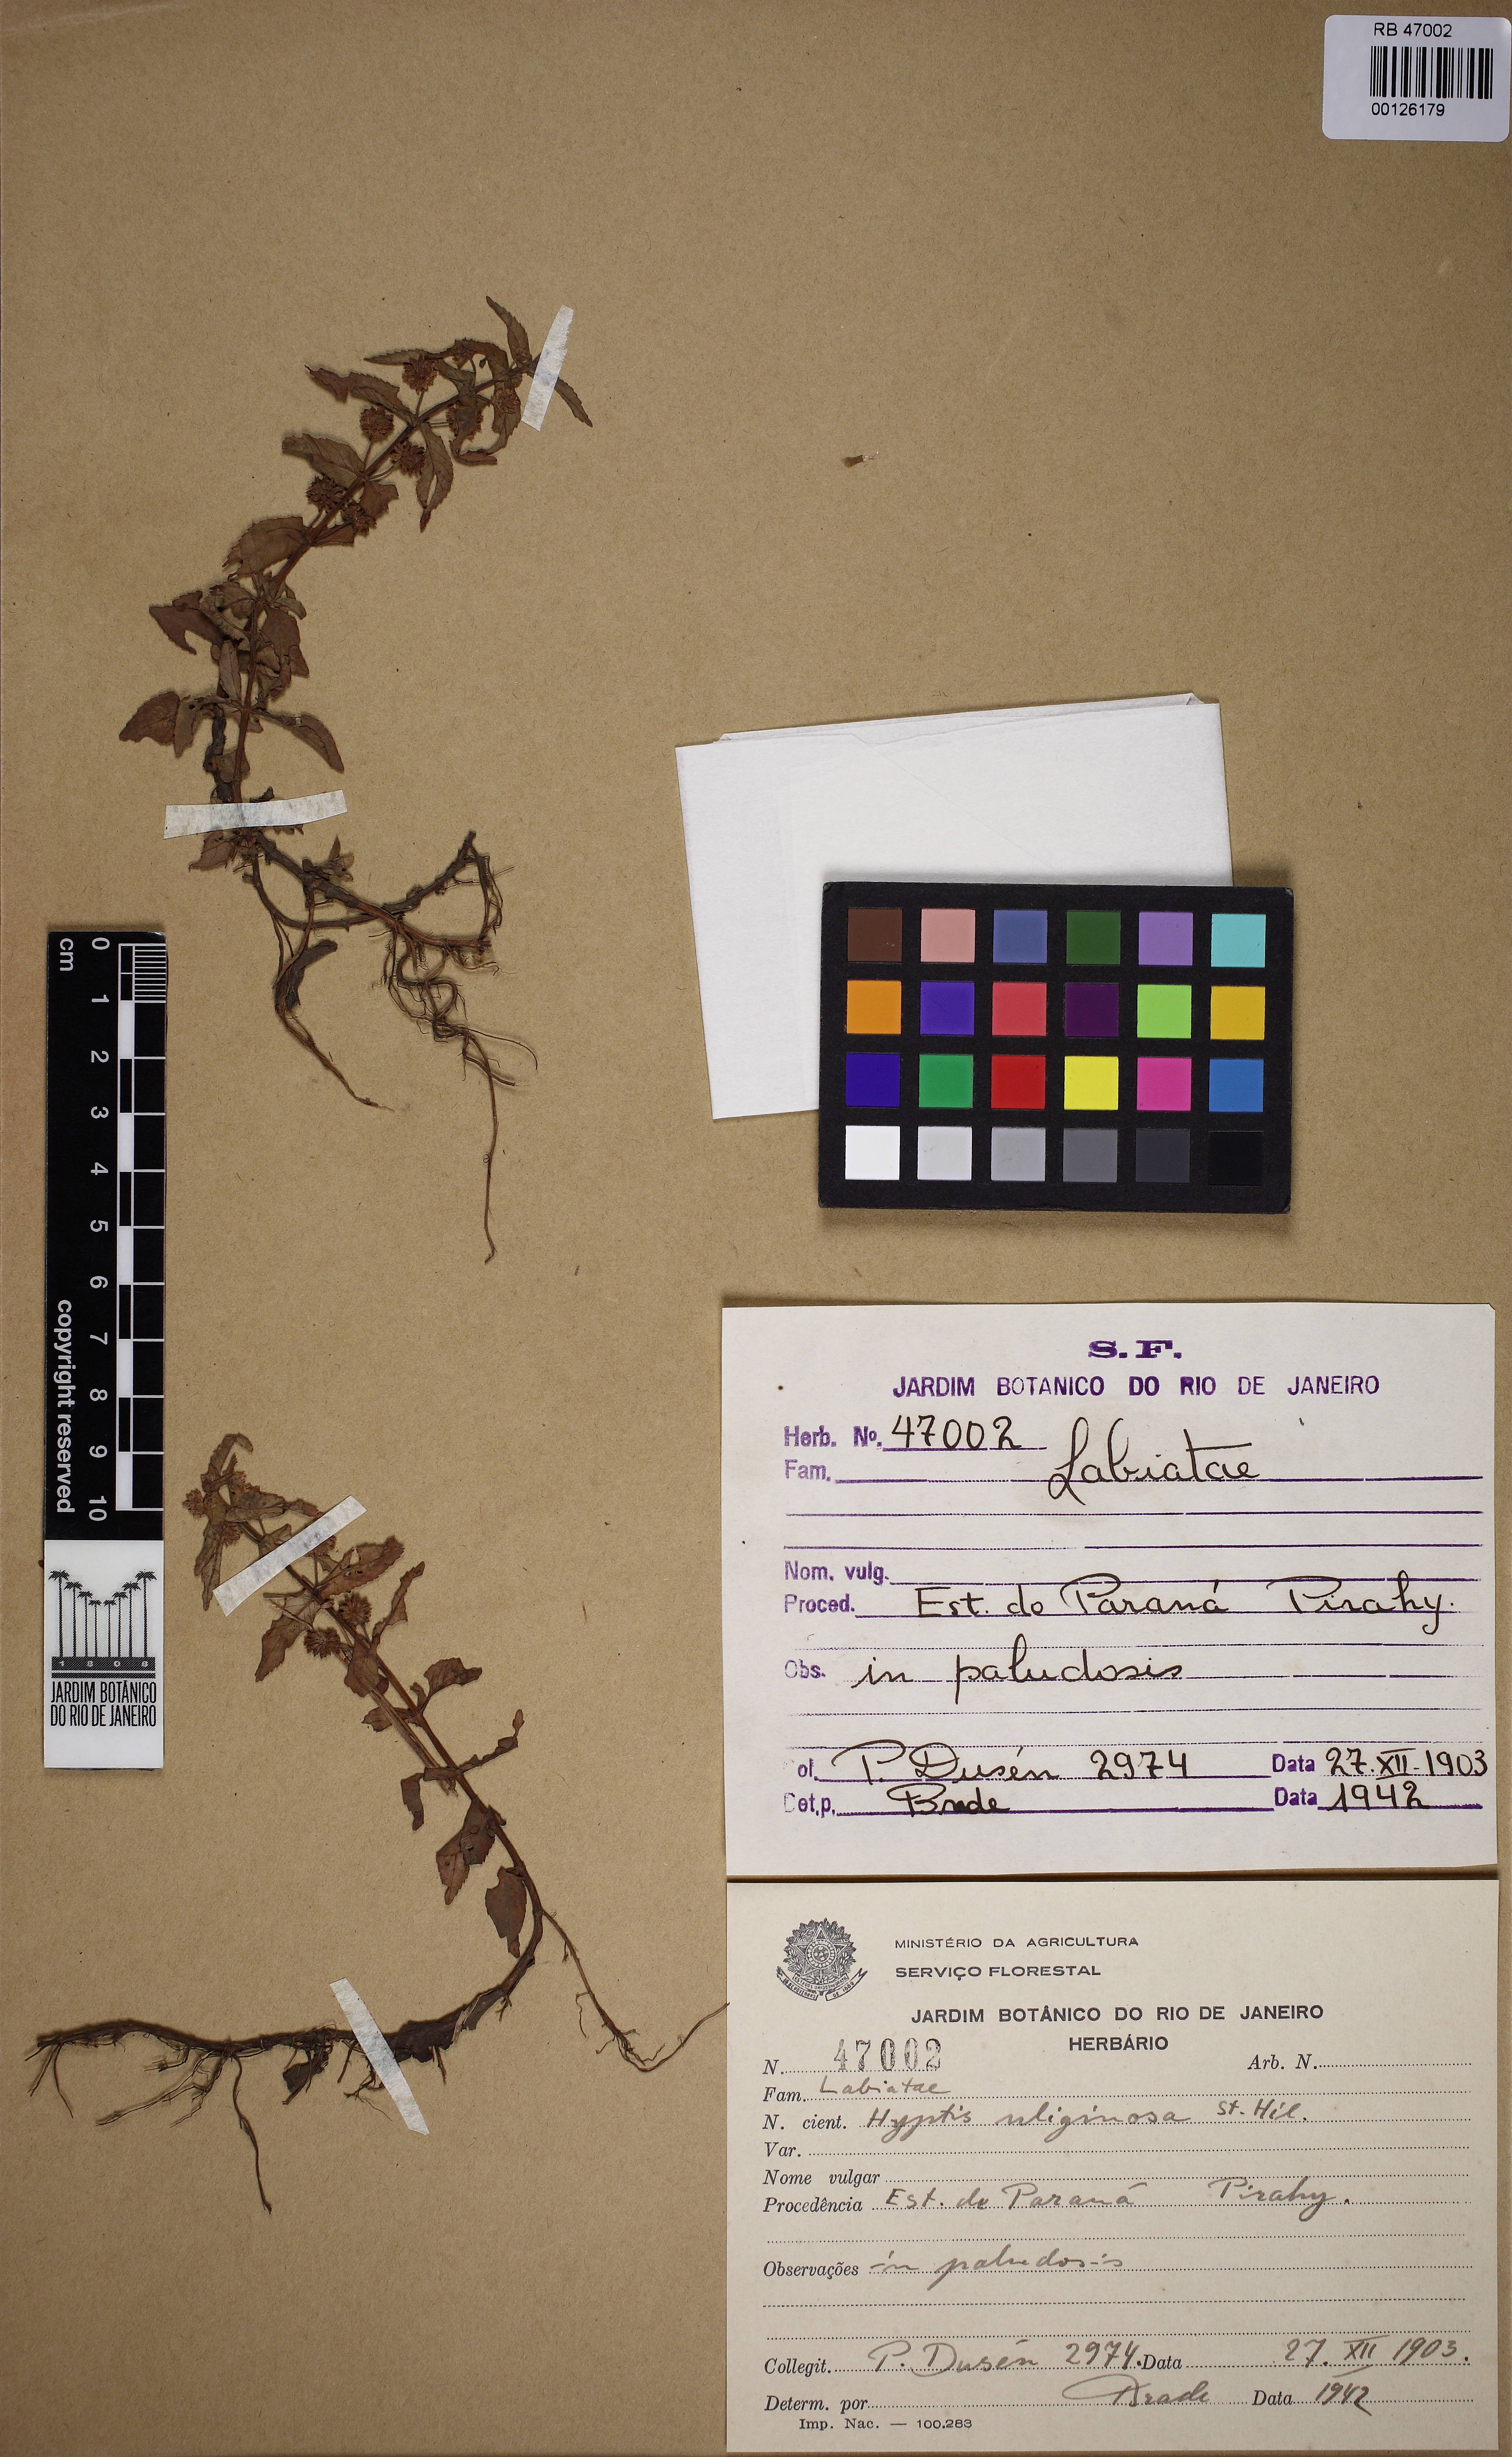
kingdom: Plantae
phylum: Tracheophyta
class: Magnoliopsida
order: Lamiales
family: Lamiaceae
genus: Hyptis
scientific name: Hyptis uliginosa
